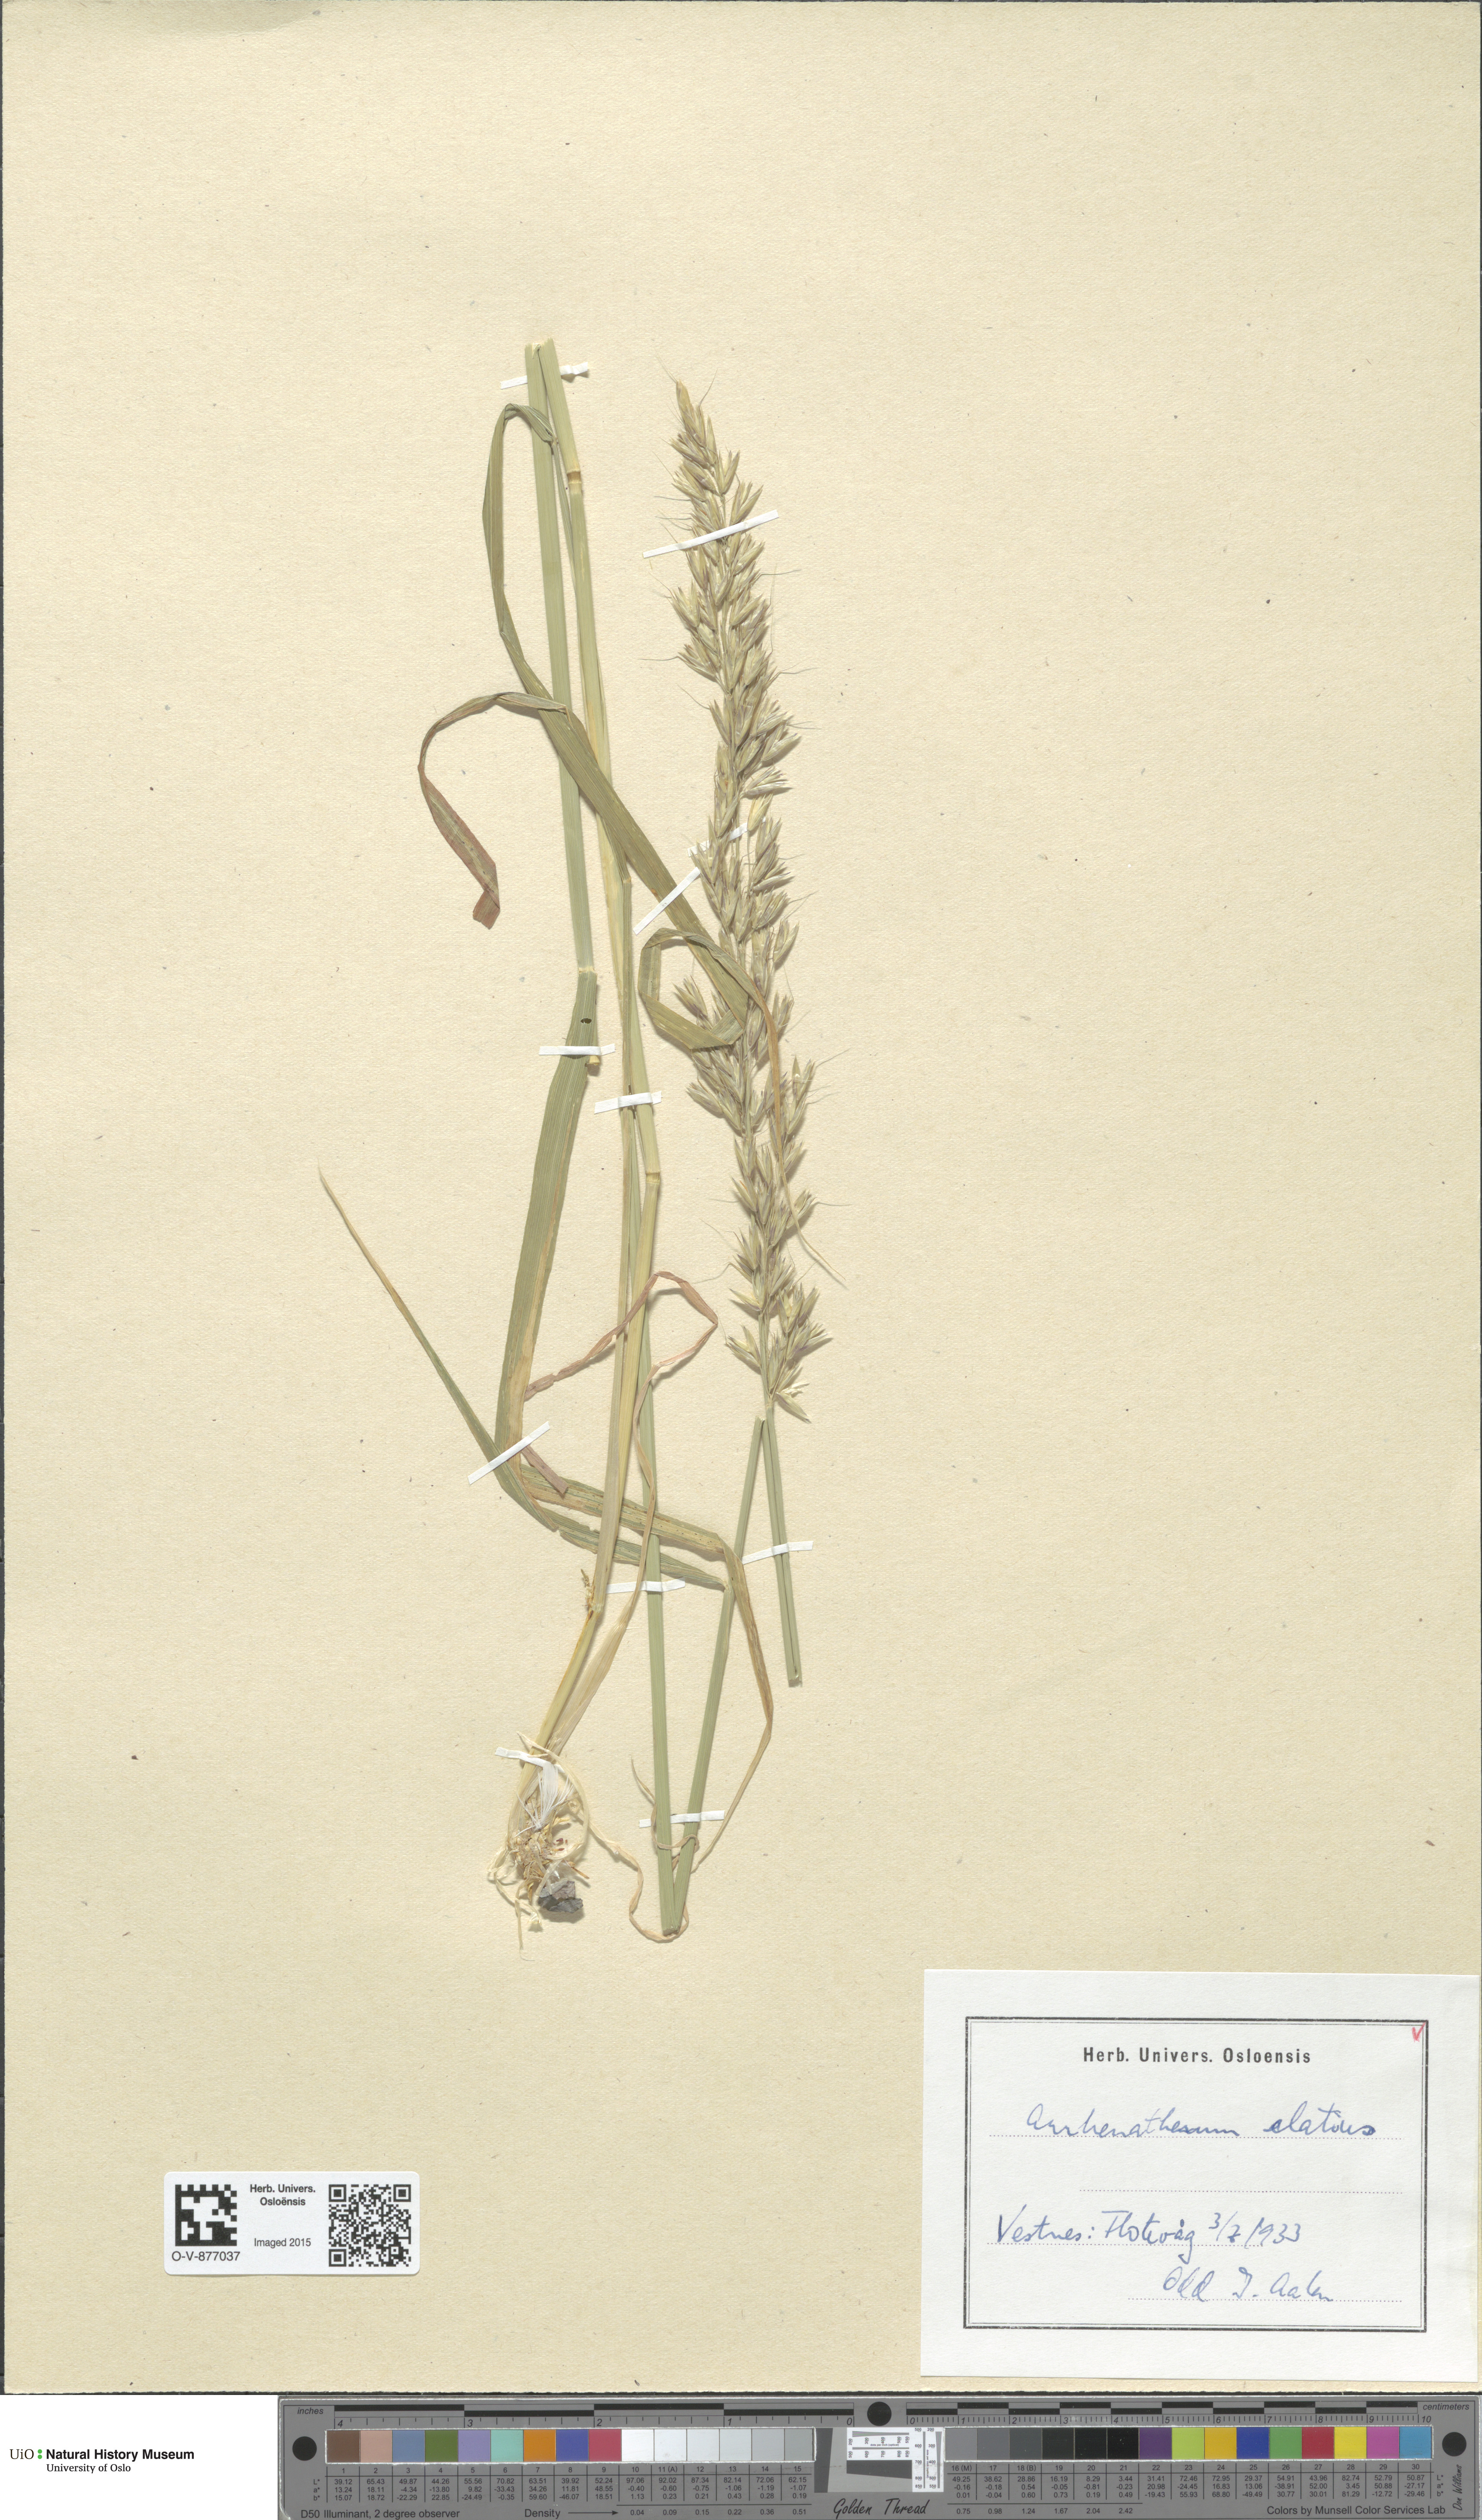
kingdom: Plantae
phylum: Tracheophyta
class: Liliopsida
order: Poales
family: Poaceae
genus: Arrhenatherum
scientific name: Arrhenatherum elatius
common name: Tall oatgrass
